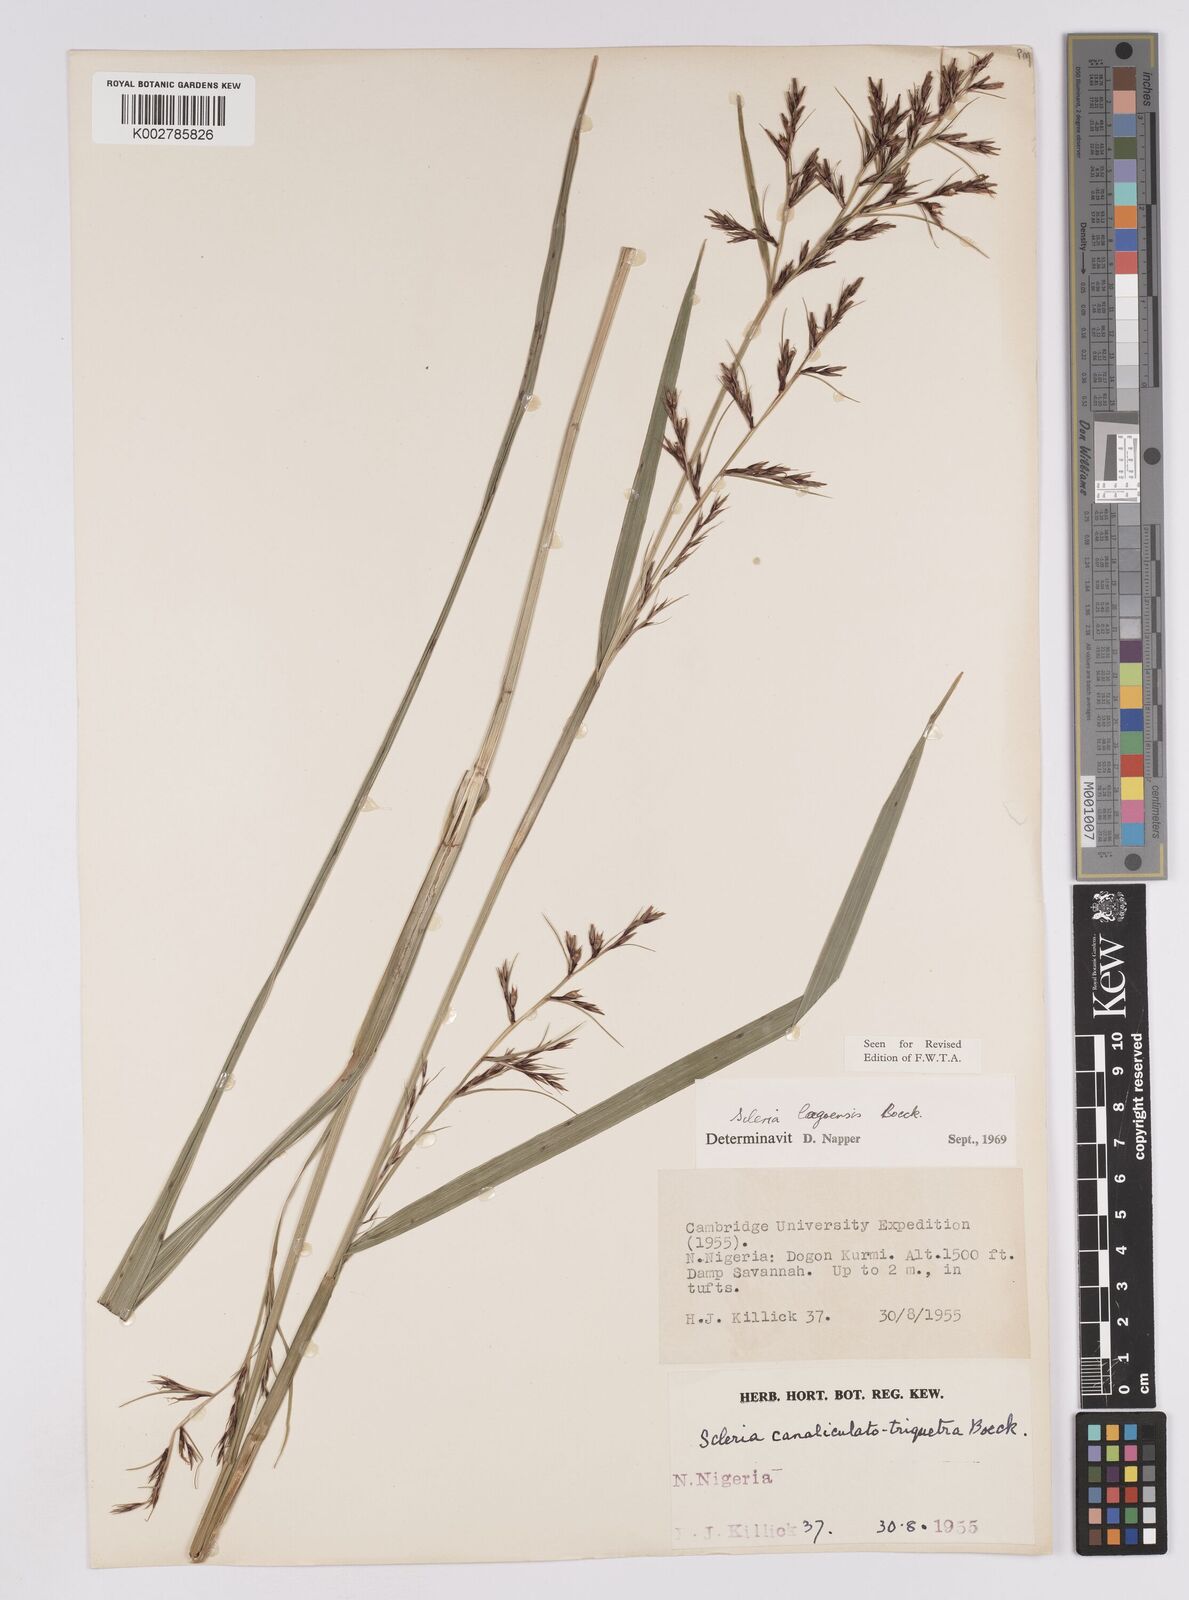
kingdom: Plantae
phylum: Tracheophyta
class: Liliopsida
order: Poales
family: Cyperaceae
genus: Scleria
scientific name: Scleria lagoensis
